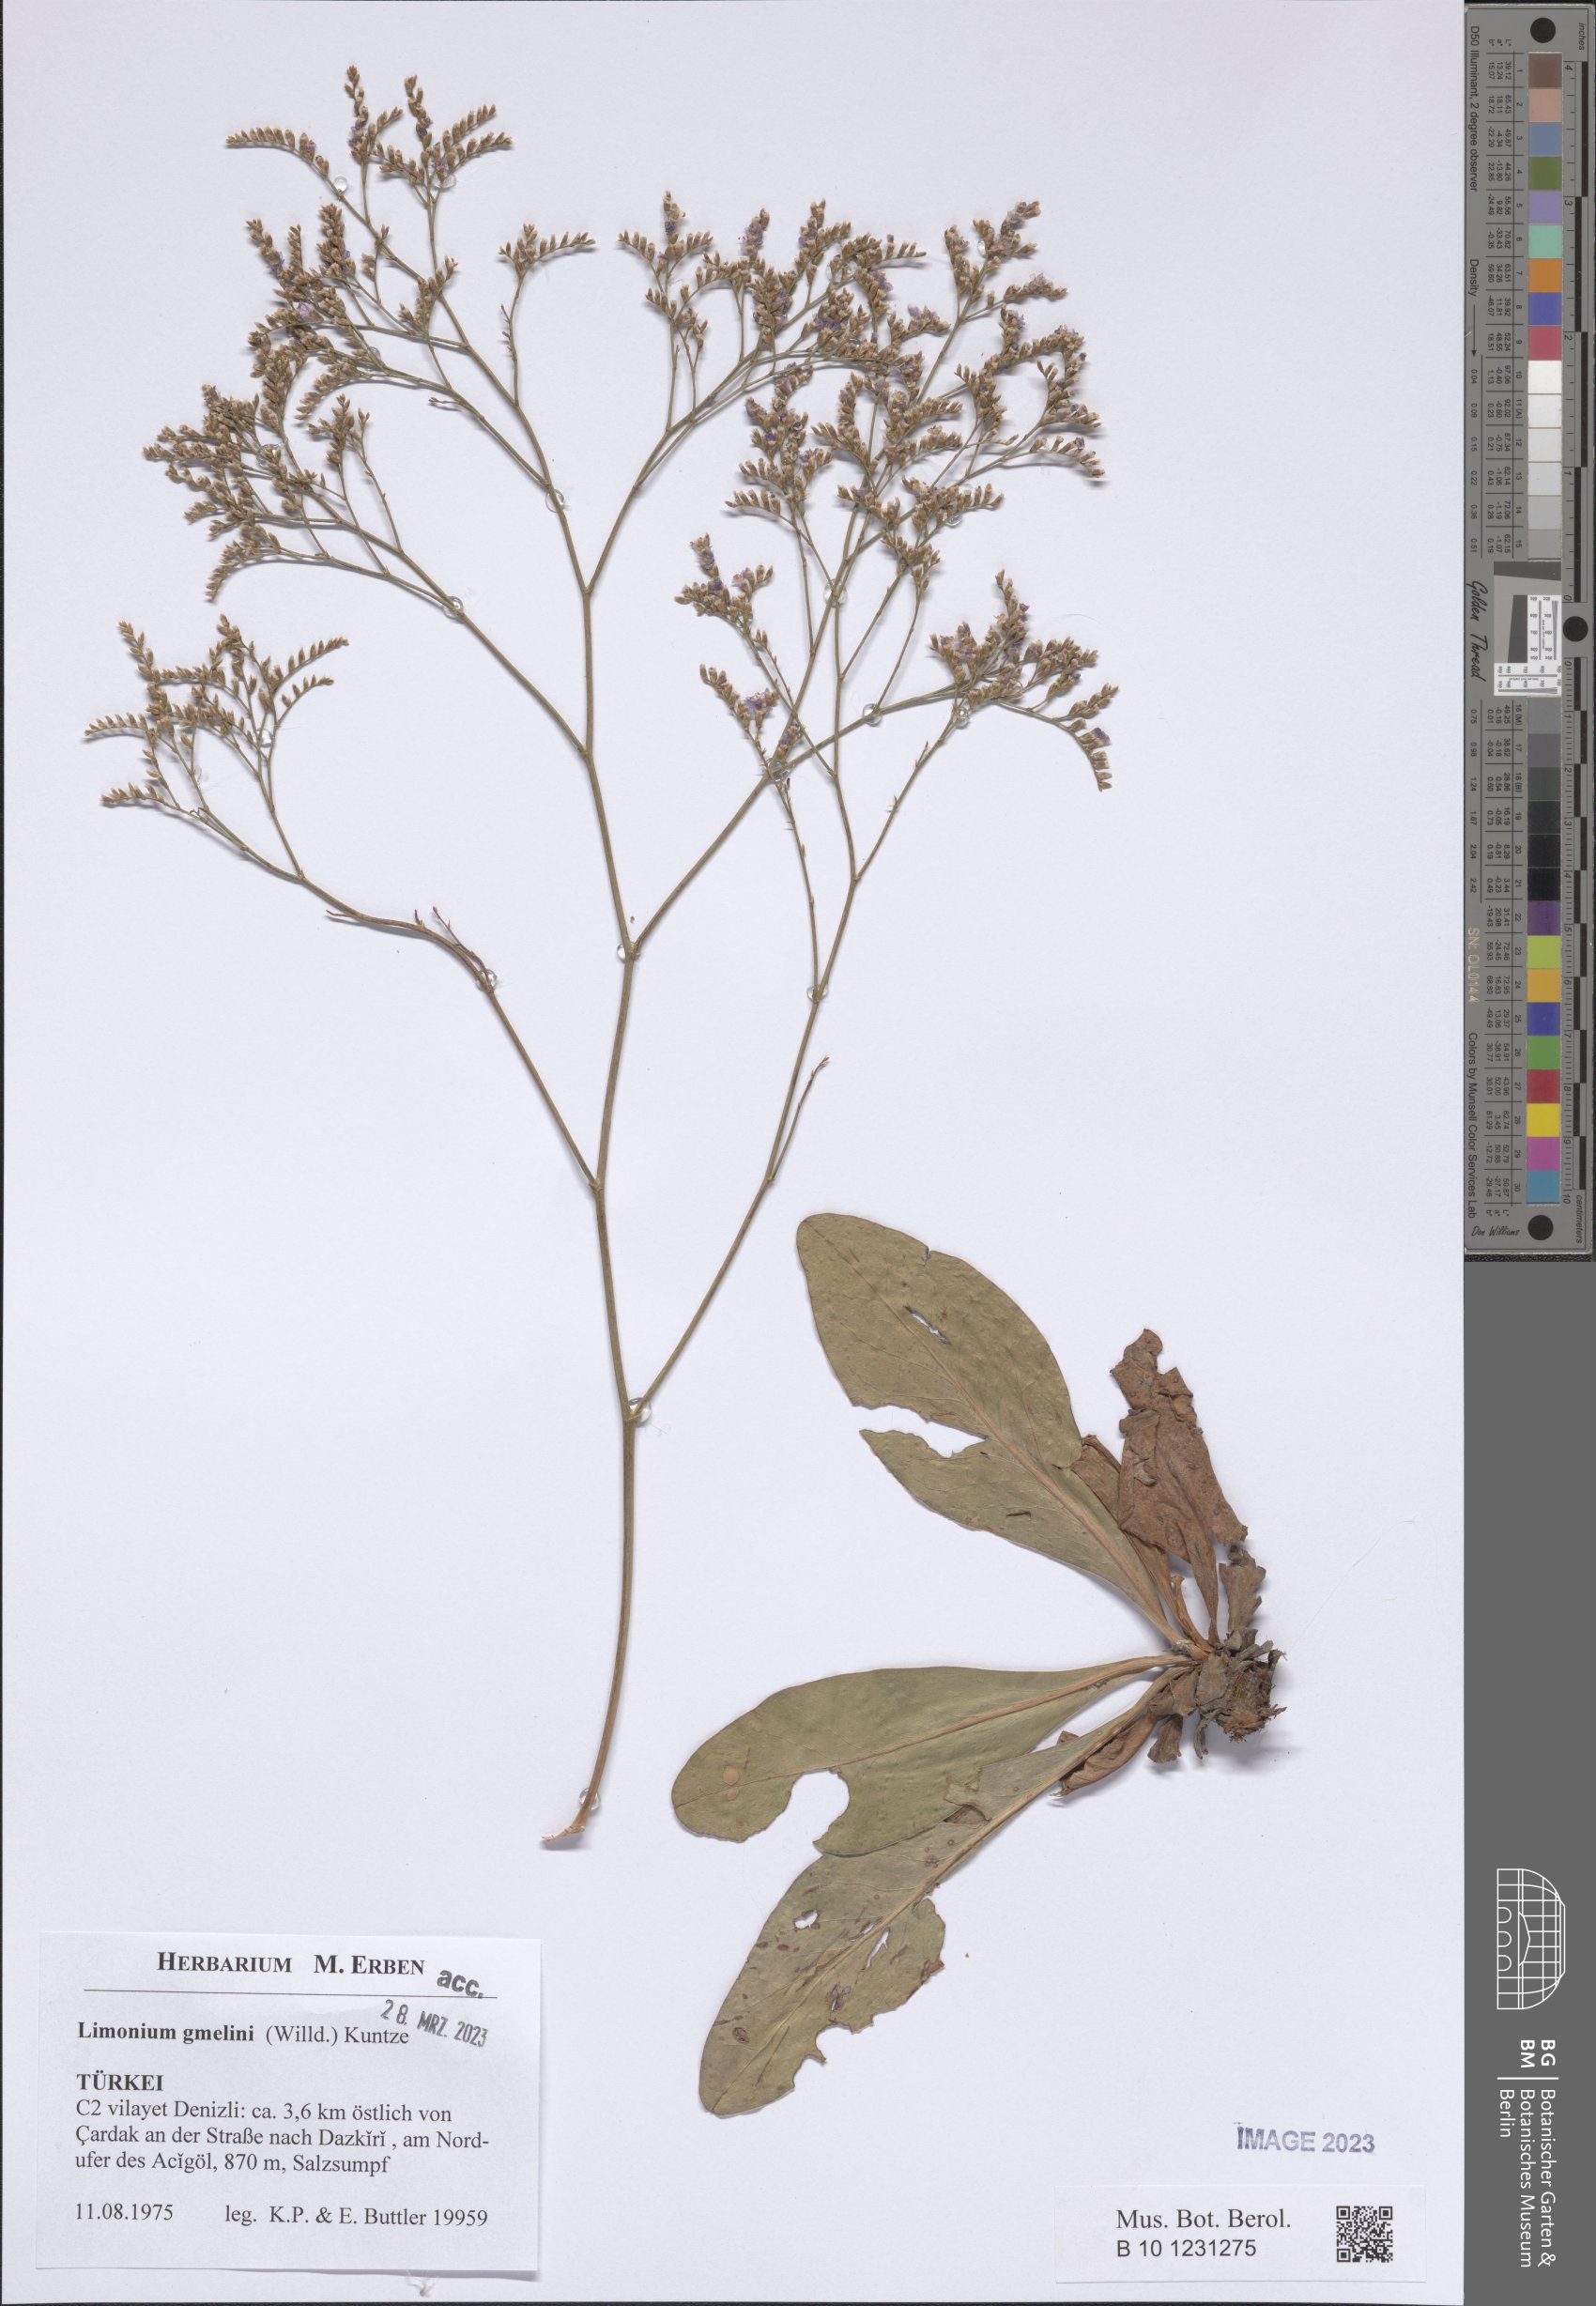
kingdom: Plantae
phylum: Tracheophyta
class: Magnoliopsida
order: Caryophyllales
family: Plumbaginaceae
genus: Limonium
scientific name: Limonium gmelini
